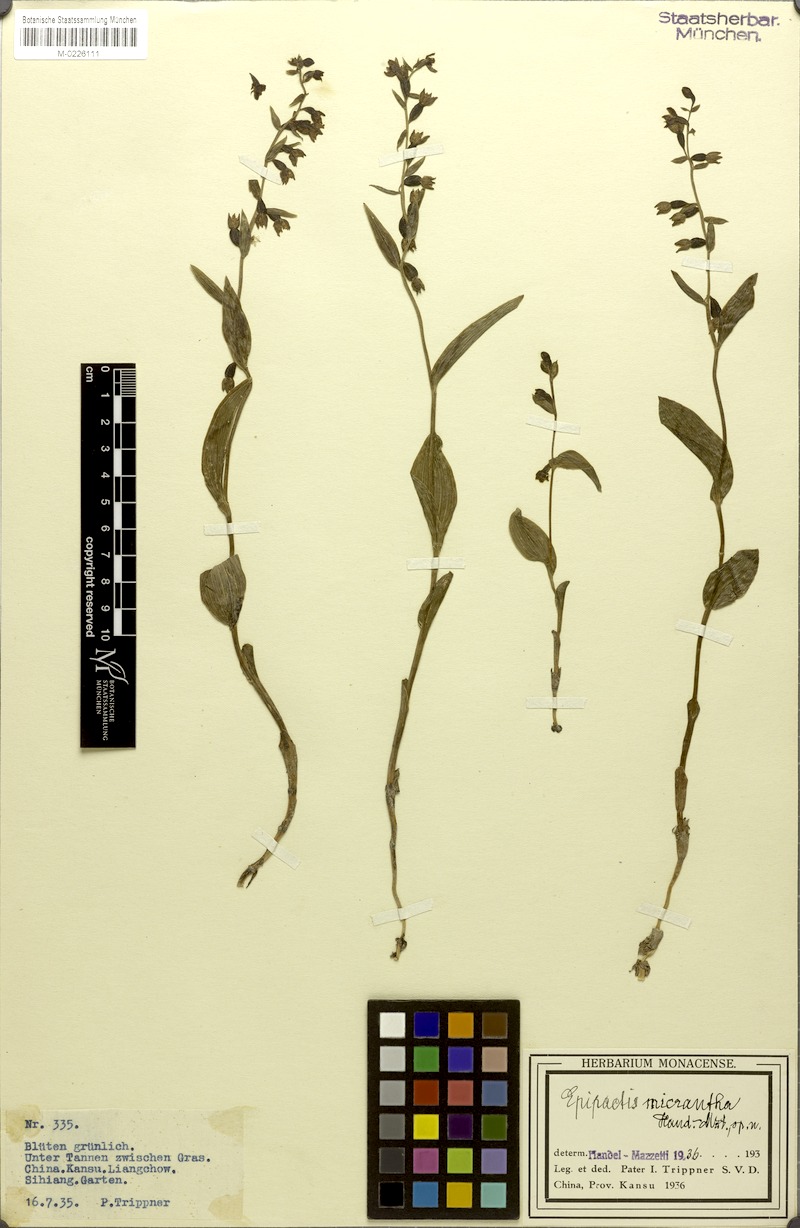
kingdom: Plantae
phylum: Tracheophyta
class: Liliopsida
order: Asparagales
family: Orchidaceae
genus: Epipactis
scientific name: Epipactis helleborine
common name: Broad-leaved helleborine
